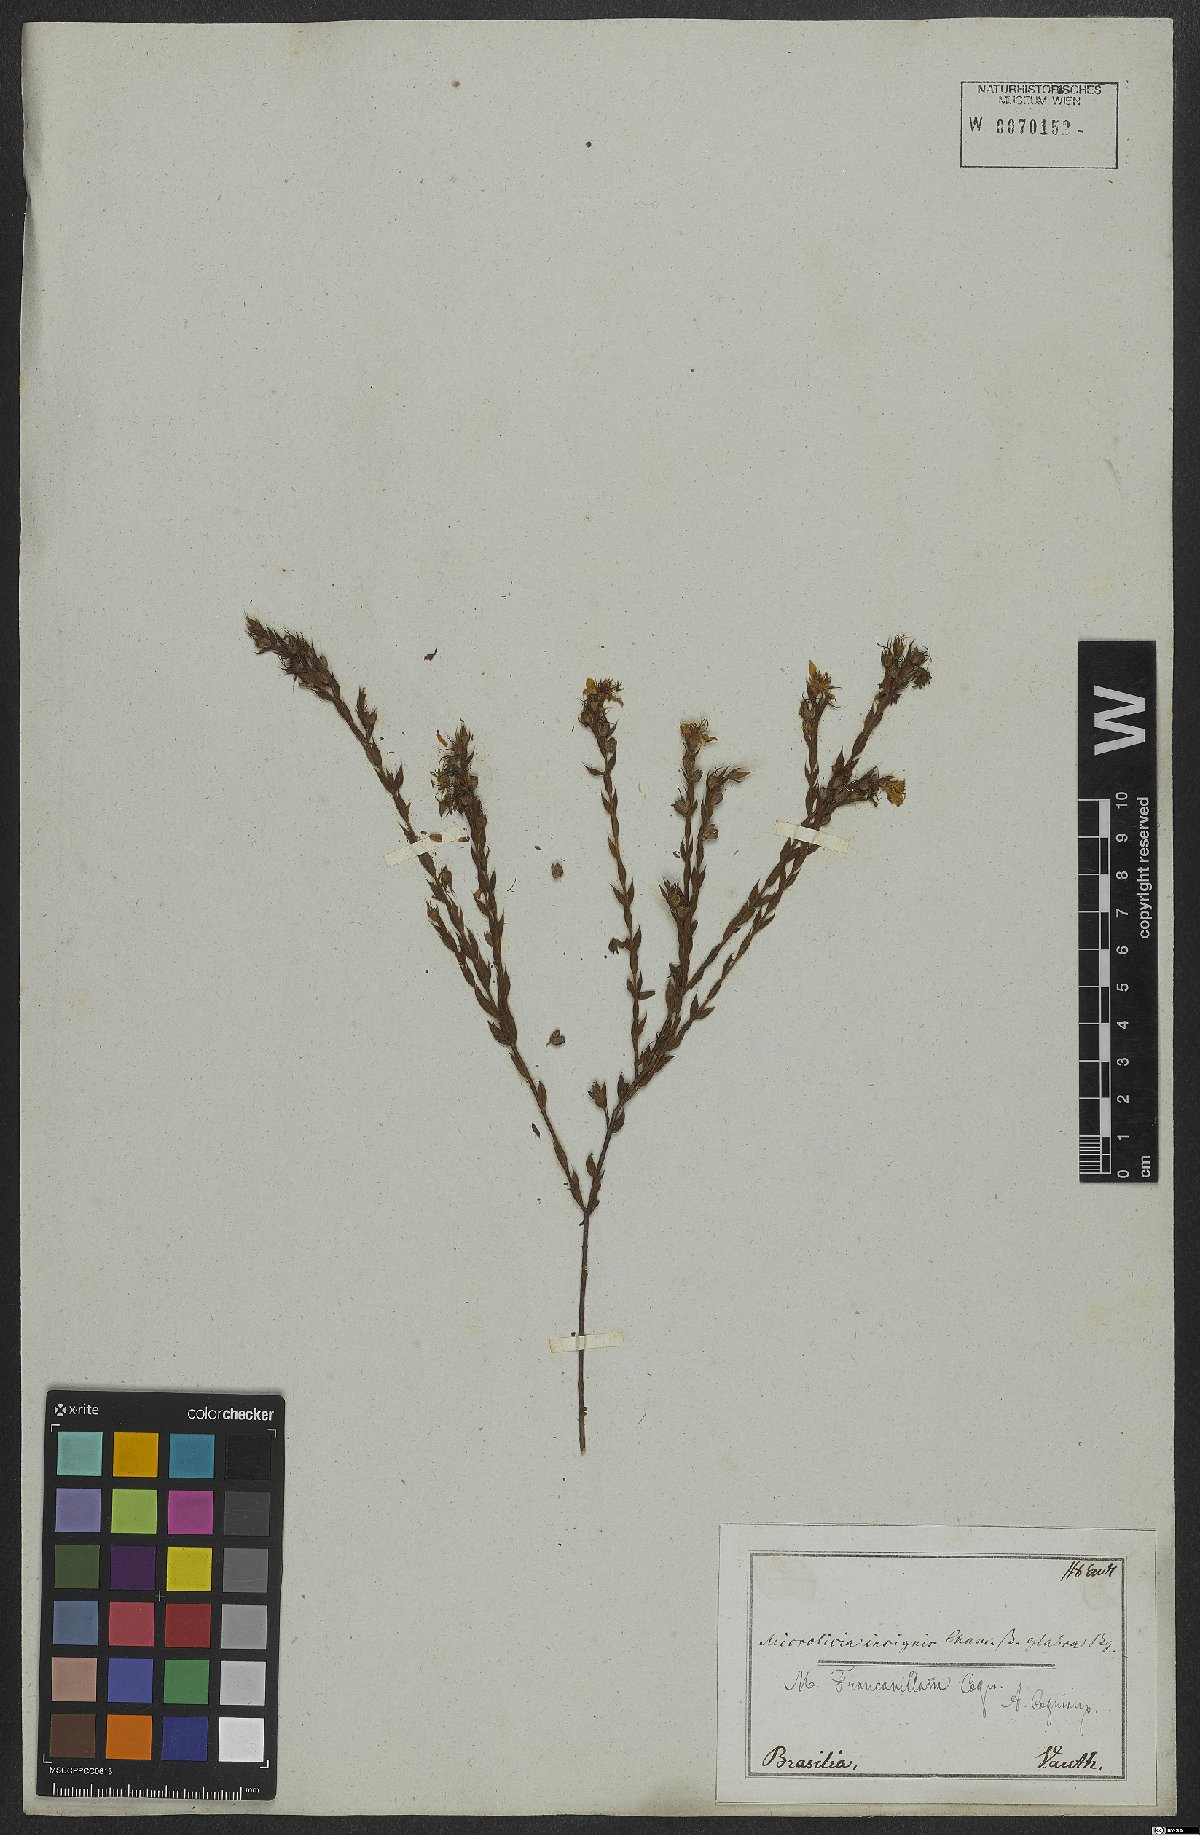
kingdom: Plantae
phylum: Tracheophyta
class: Magnoliopsida
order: Myrtales
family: Melastomataceae
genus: Microlicia
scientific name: Microlicia castrata
